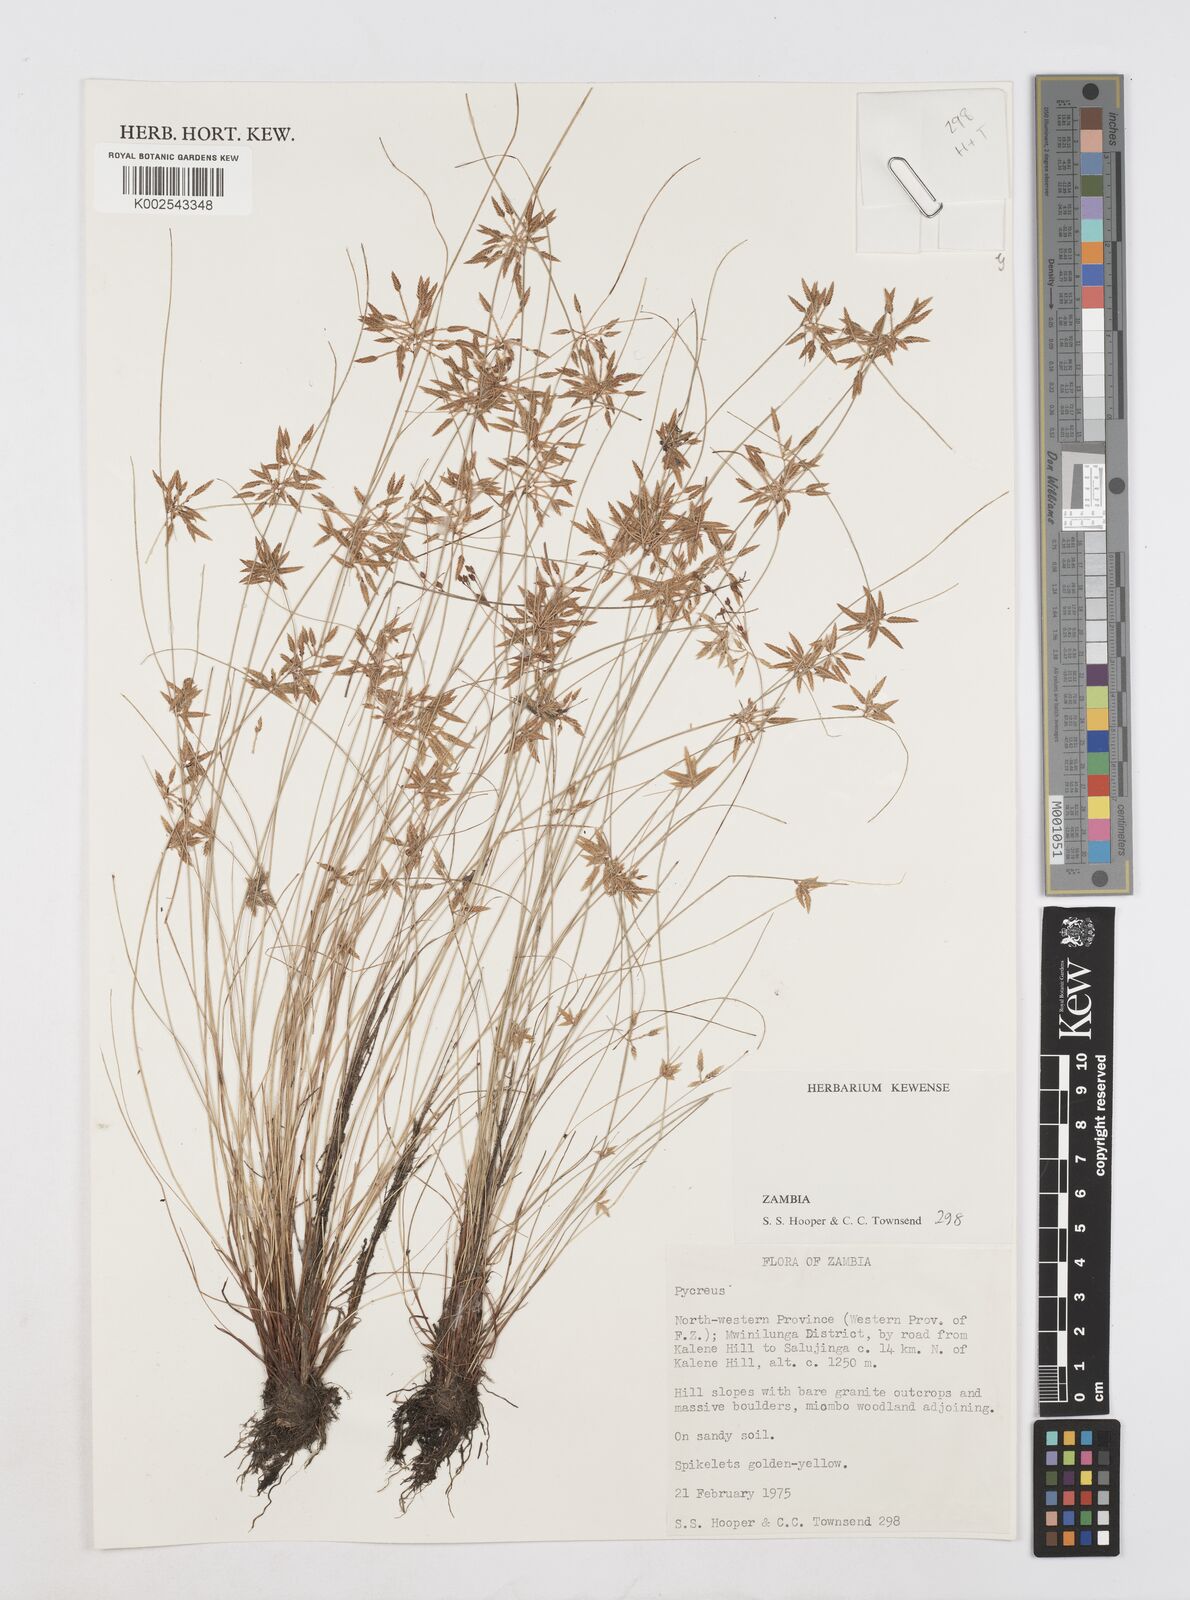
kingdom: Plantae
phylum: Tracheophyta
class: Liliopsida
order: Poales
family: Cyperaceae
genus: Cyperus
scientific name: Cyperus
